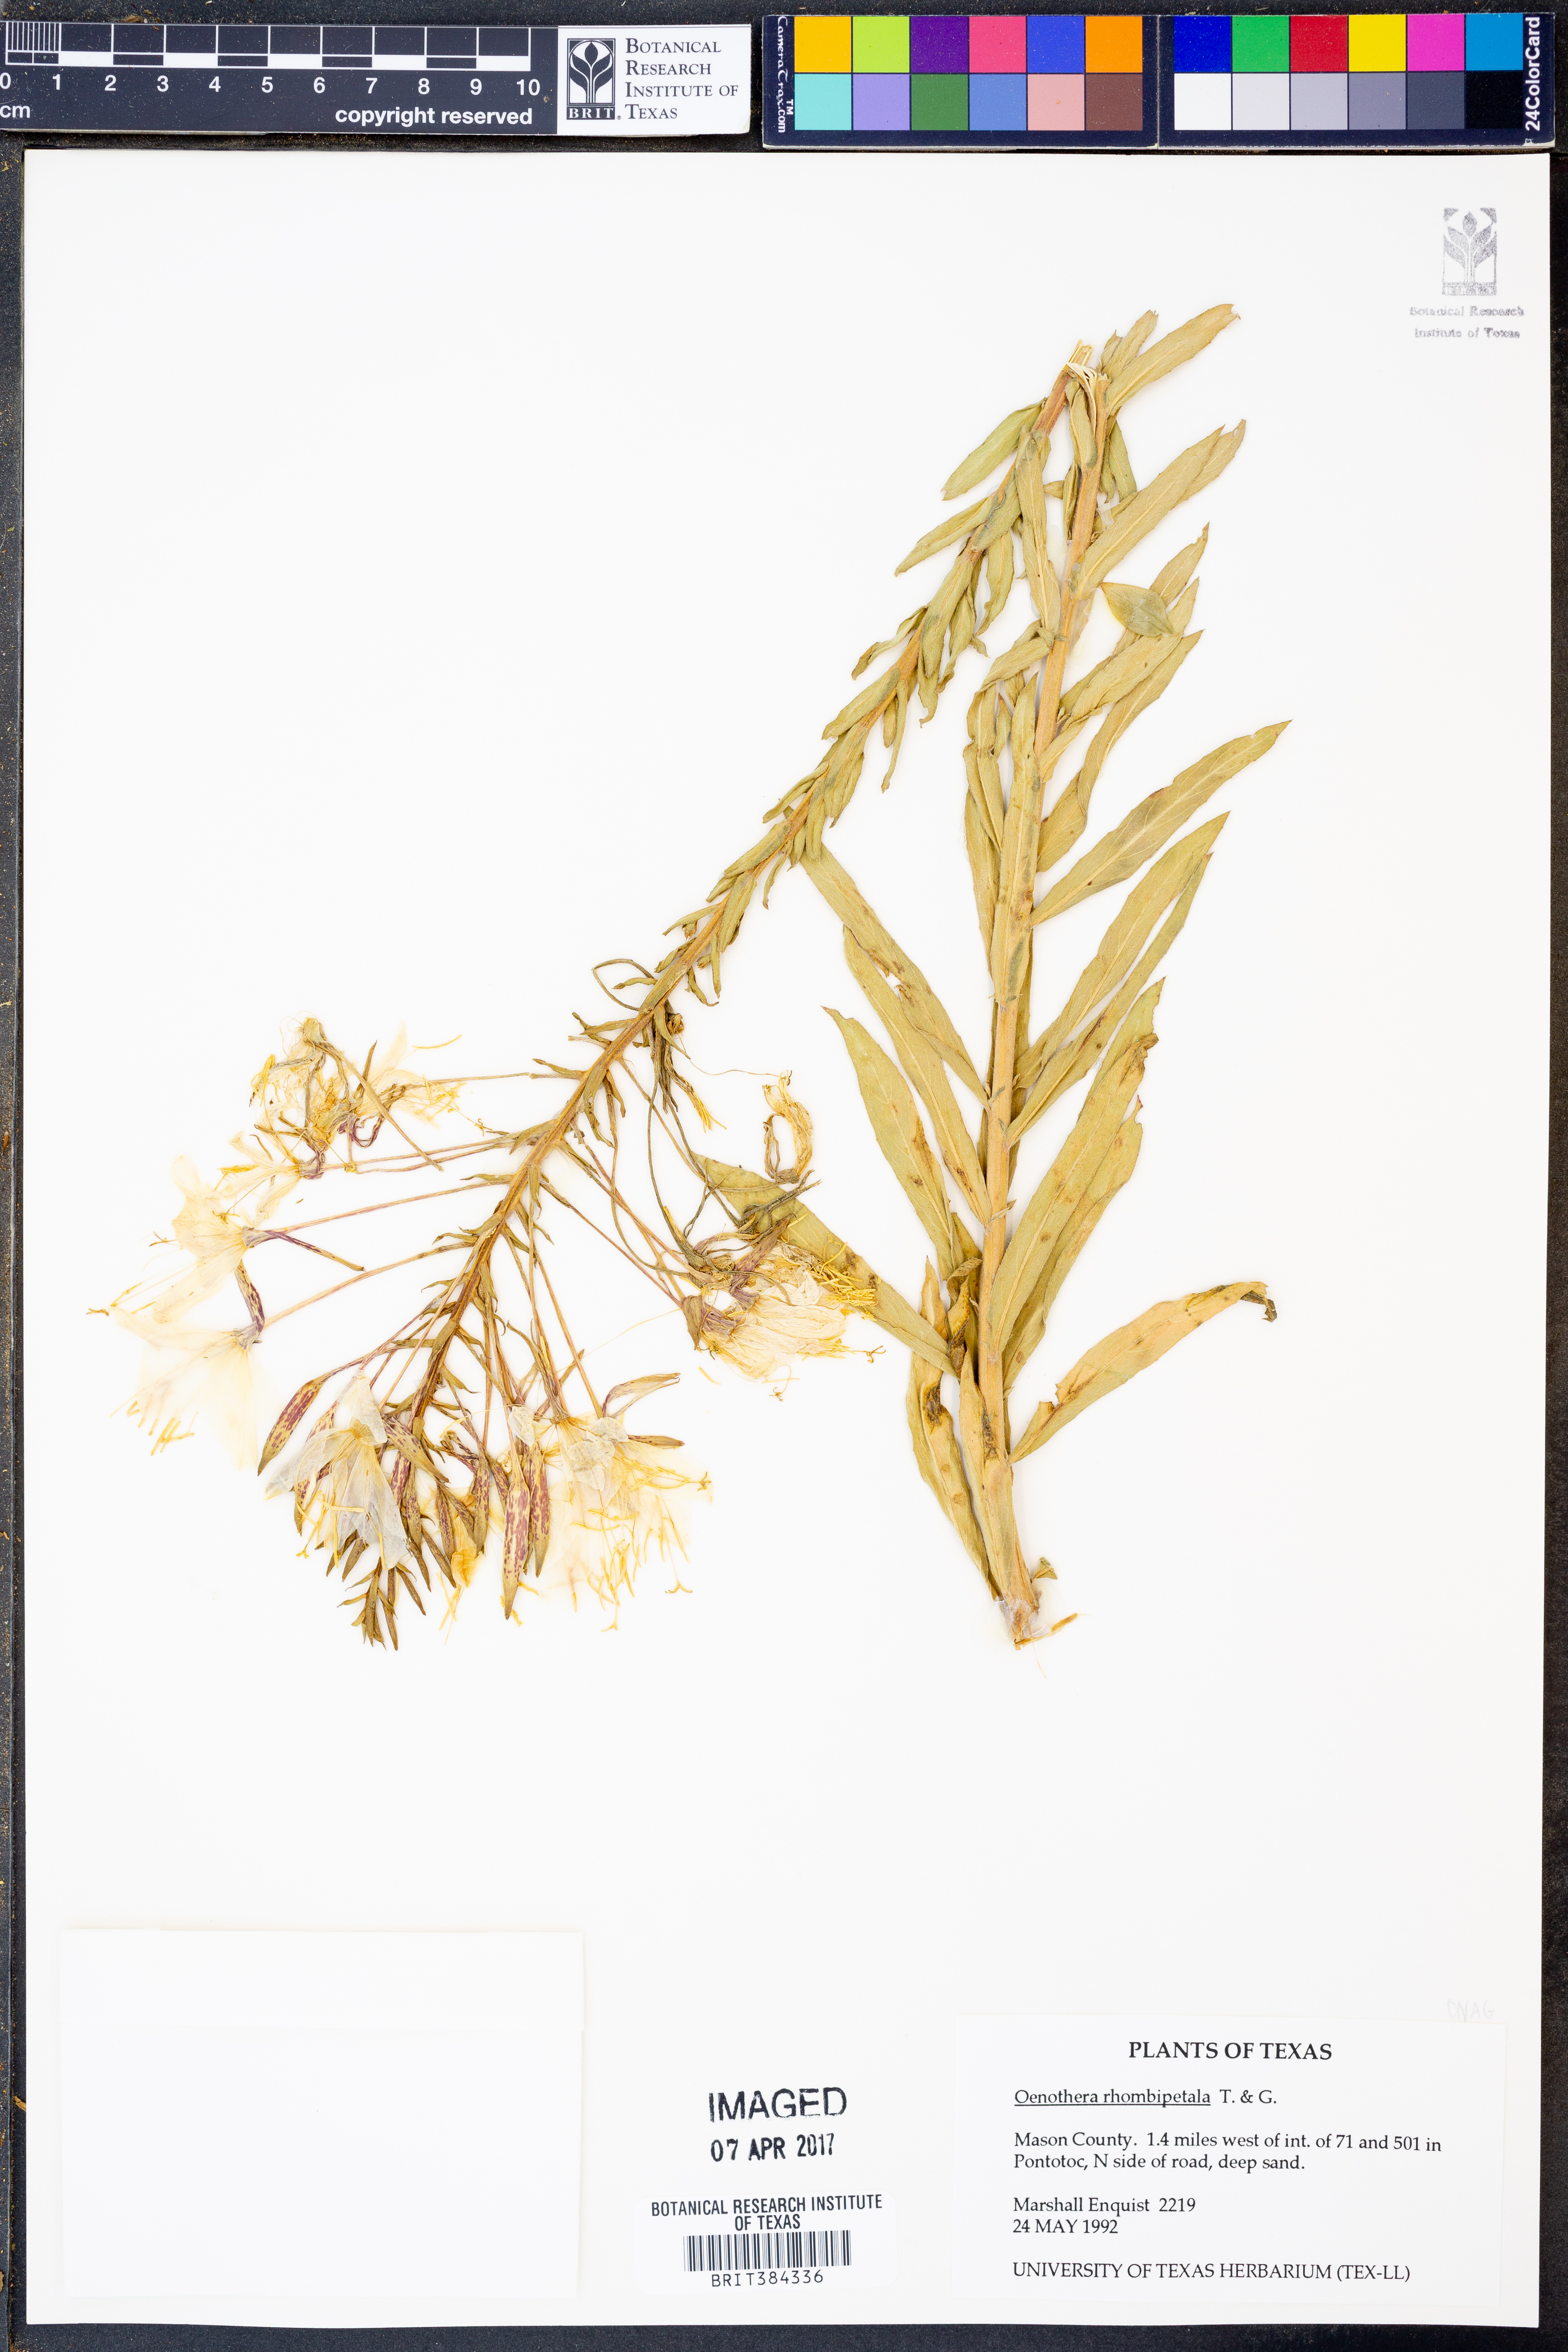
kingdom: Plantae
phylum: Tracheophyta
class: Magnoliopsida
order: Myrtales
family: Onagraceae
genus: Oenothera
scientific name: Oenothera rhombipetala
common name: Four-points evening-primrose
